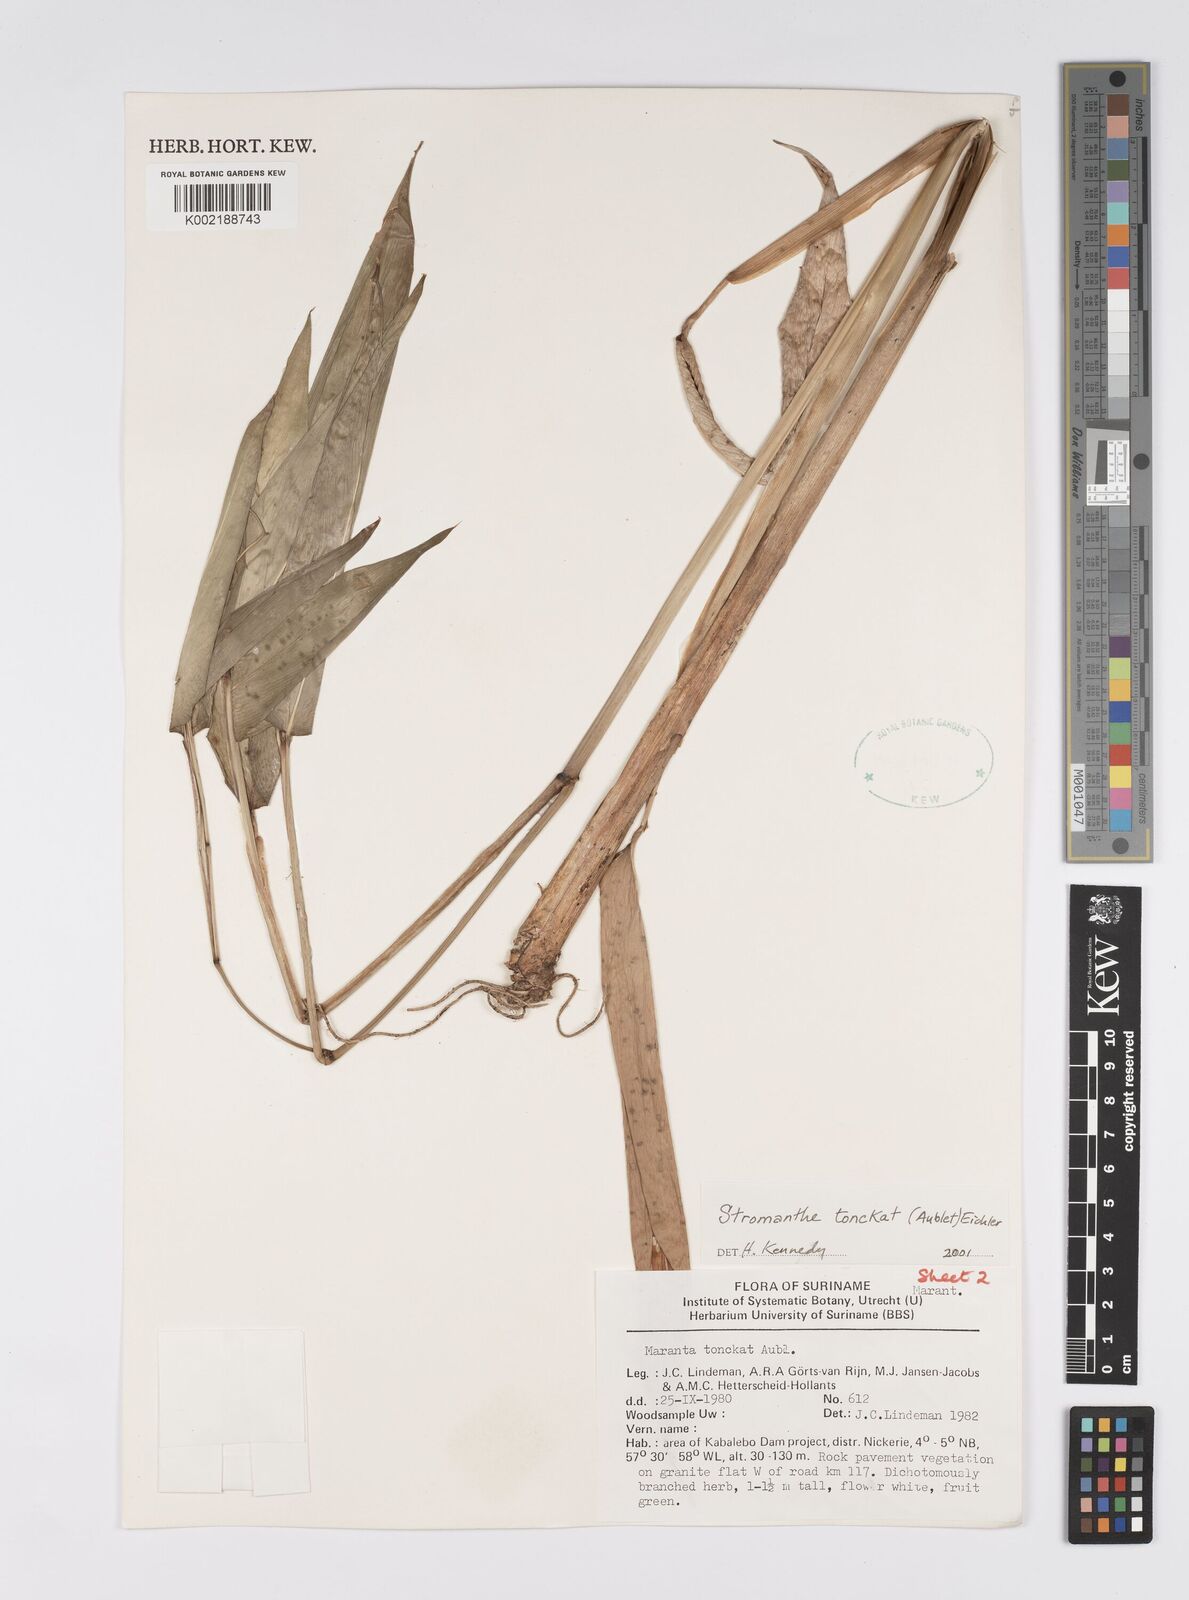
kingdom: Plantae
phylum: Tracheophyta
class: Liliopsida
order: Zingiberales
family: Marantaceae
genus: Stromanthe
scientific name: Stromanthe tonckat
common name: Stromanthe
